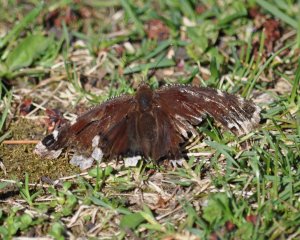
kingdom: Animalia
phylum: Arthropoda
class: Insecta
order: Lepidoptera
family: Nymphalidae
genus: Nymphalis
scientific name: Nymphalis antiopa
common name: Mourning Cloak
